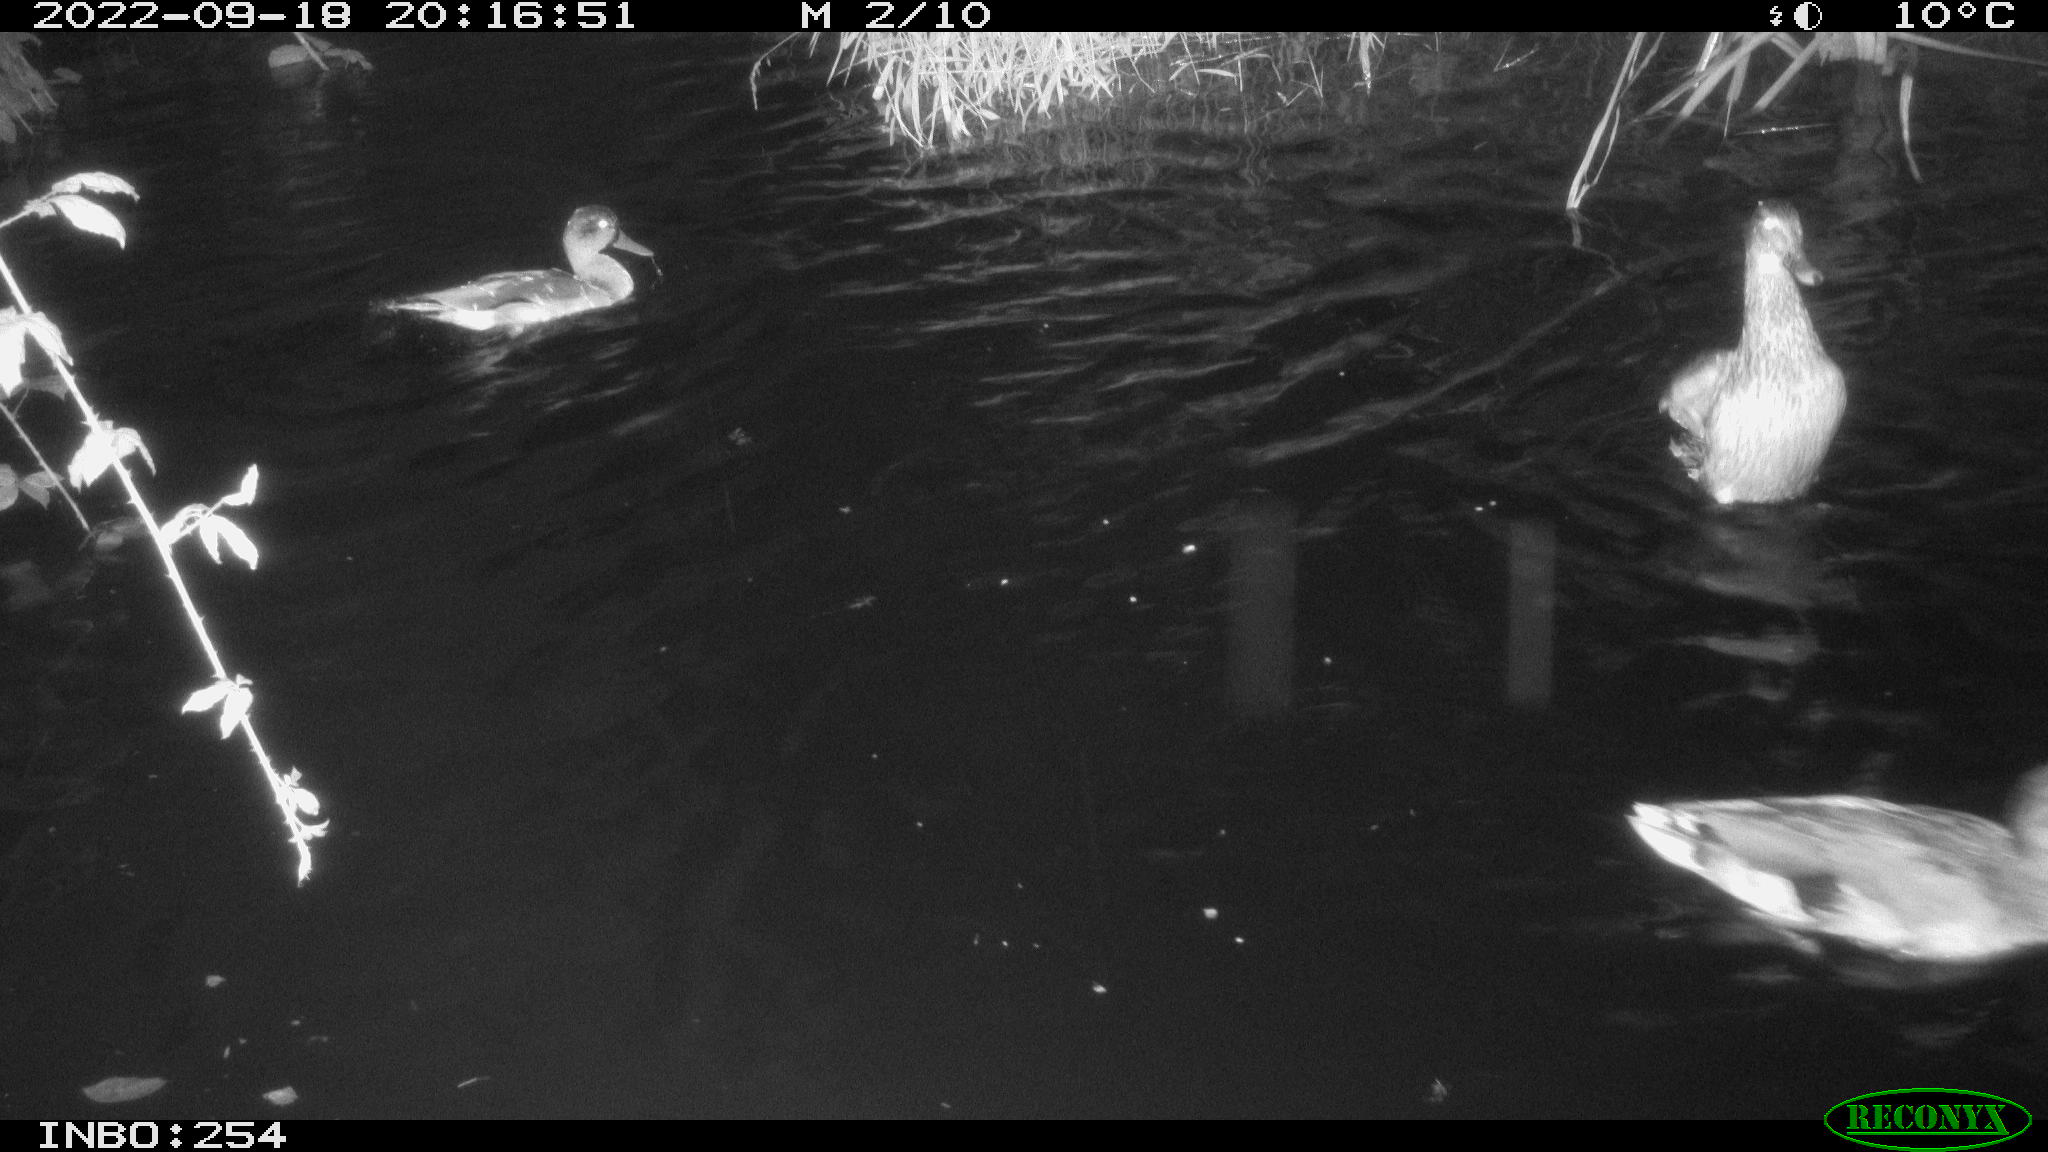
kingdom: Animalia
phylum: Chordata
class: Aves
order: Anseriformes
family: Anatidae
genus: Anas
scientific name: Anas
